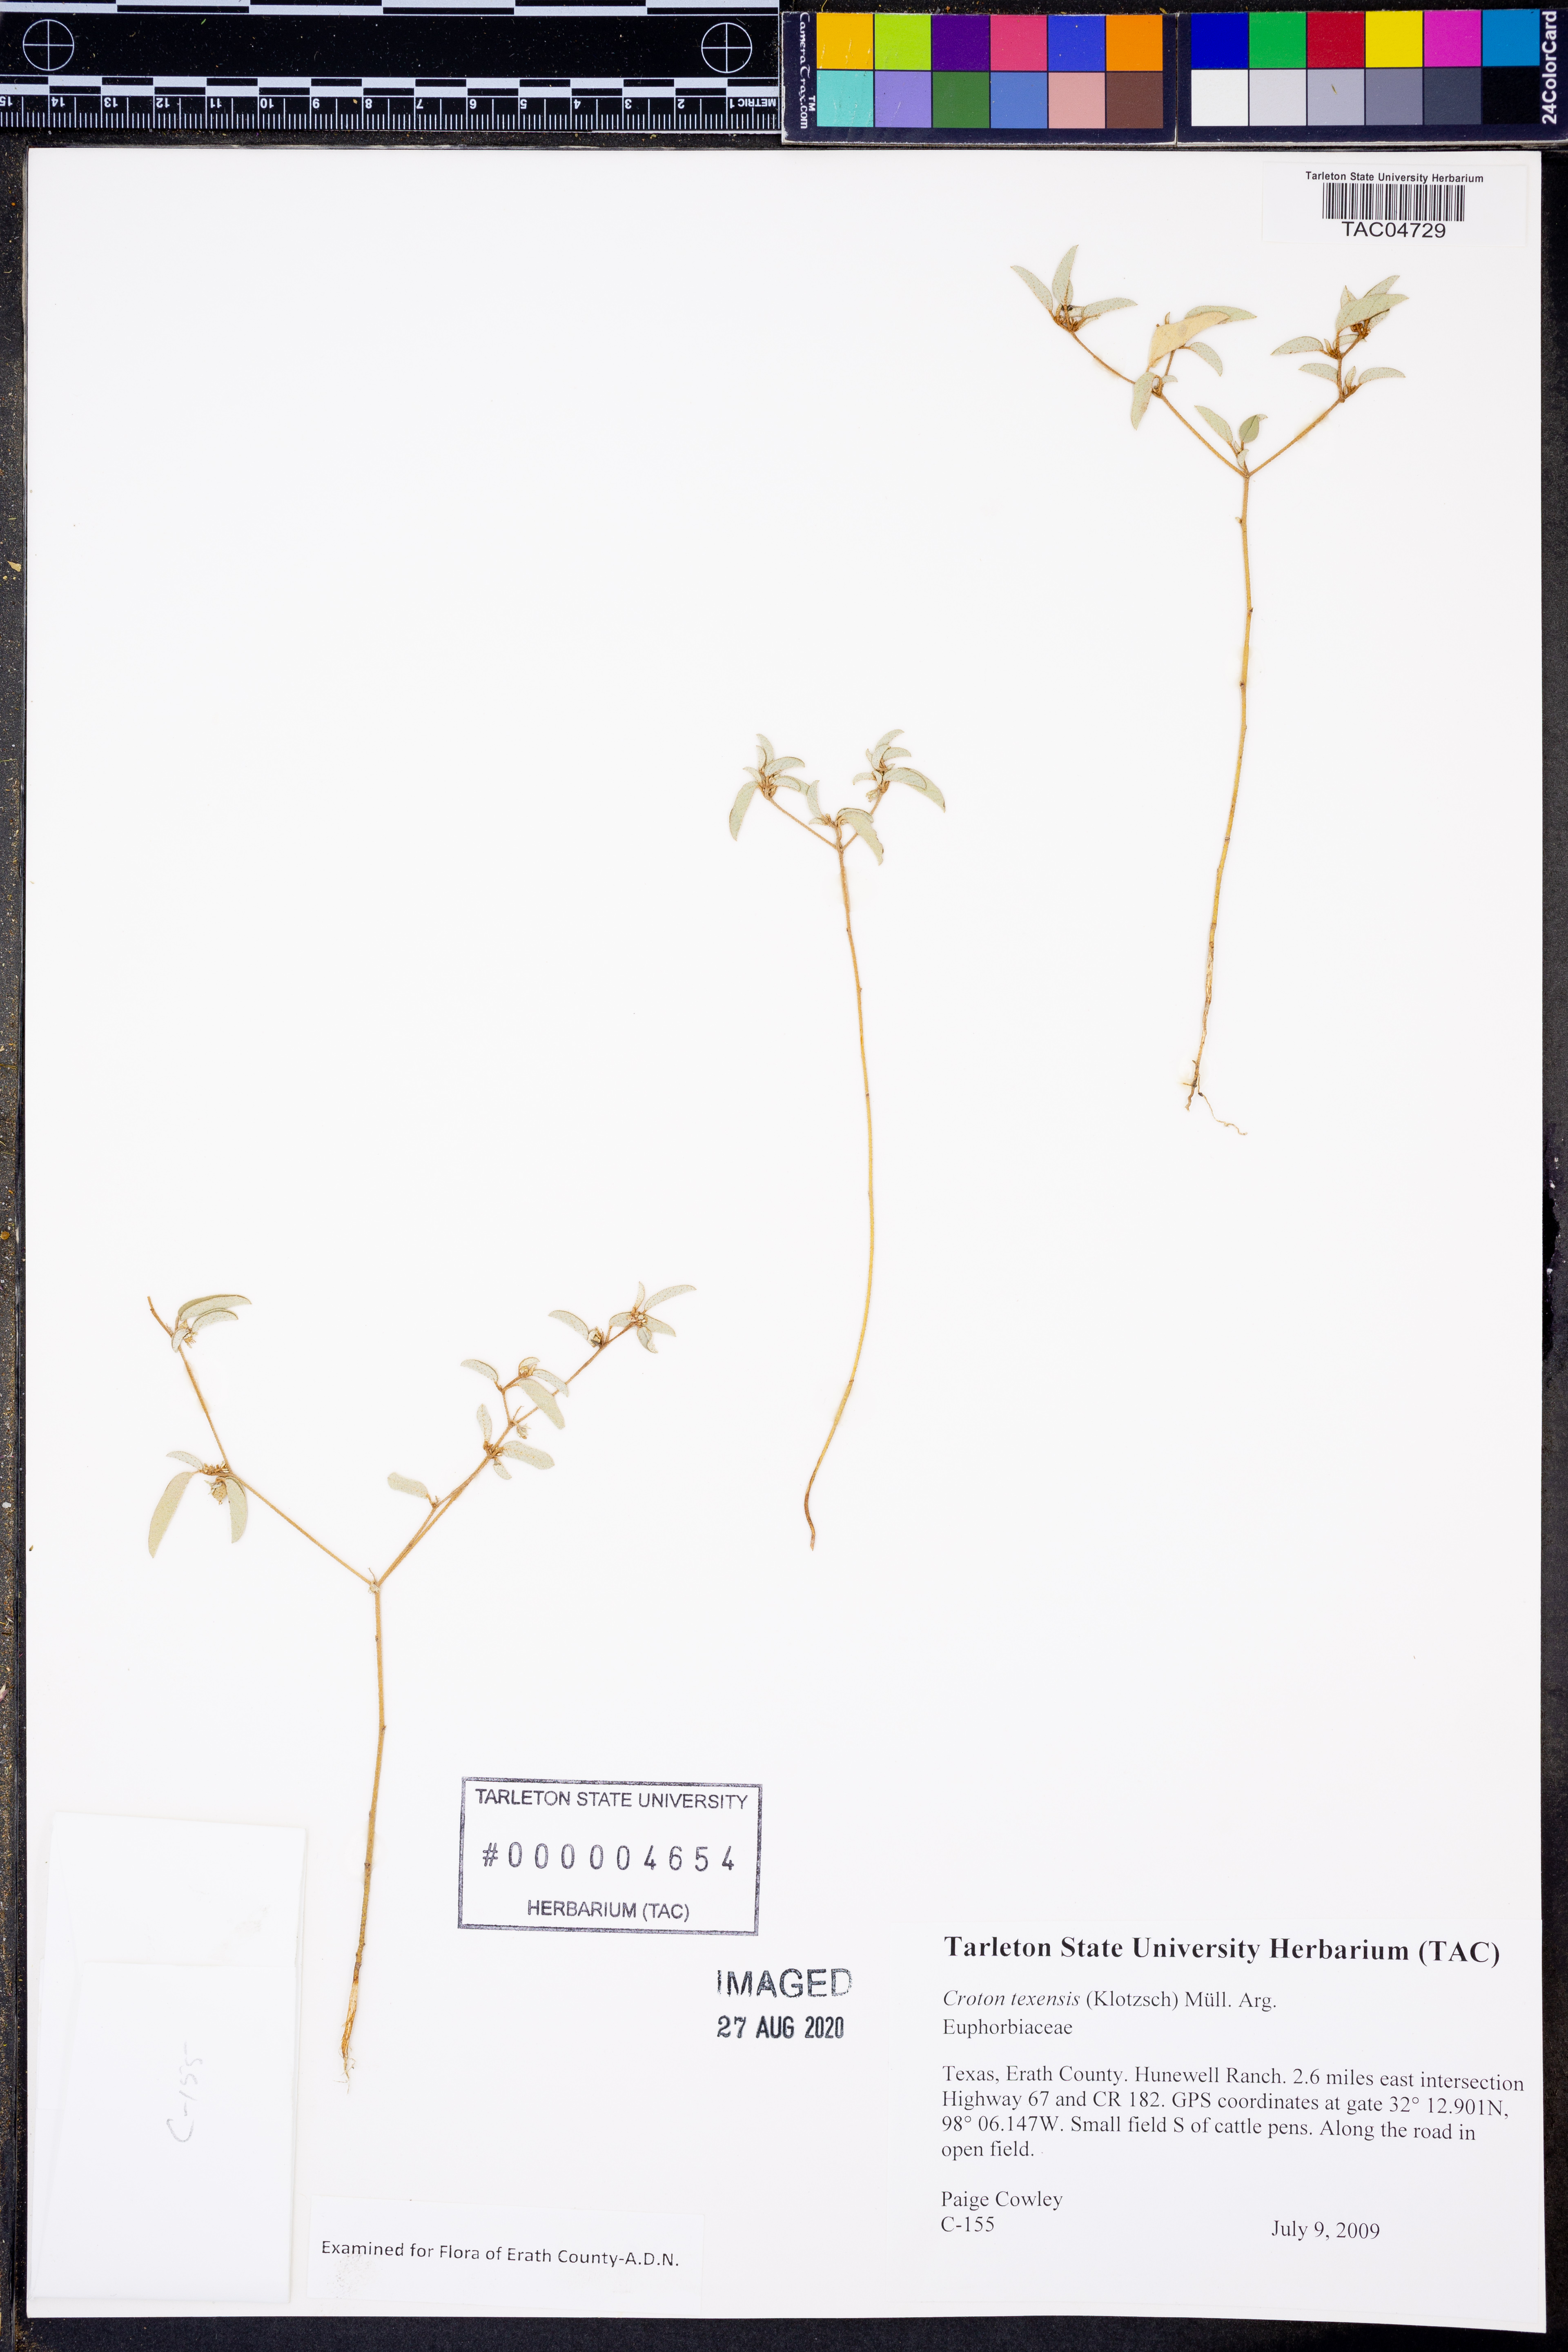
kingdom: Plantae
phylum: Tracheophyta
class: Magnoliopsida
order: Malpighiales
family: Euphorbiaceae
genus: Croton
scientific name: Croton texensis
